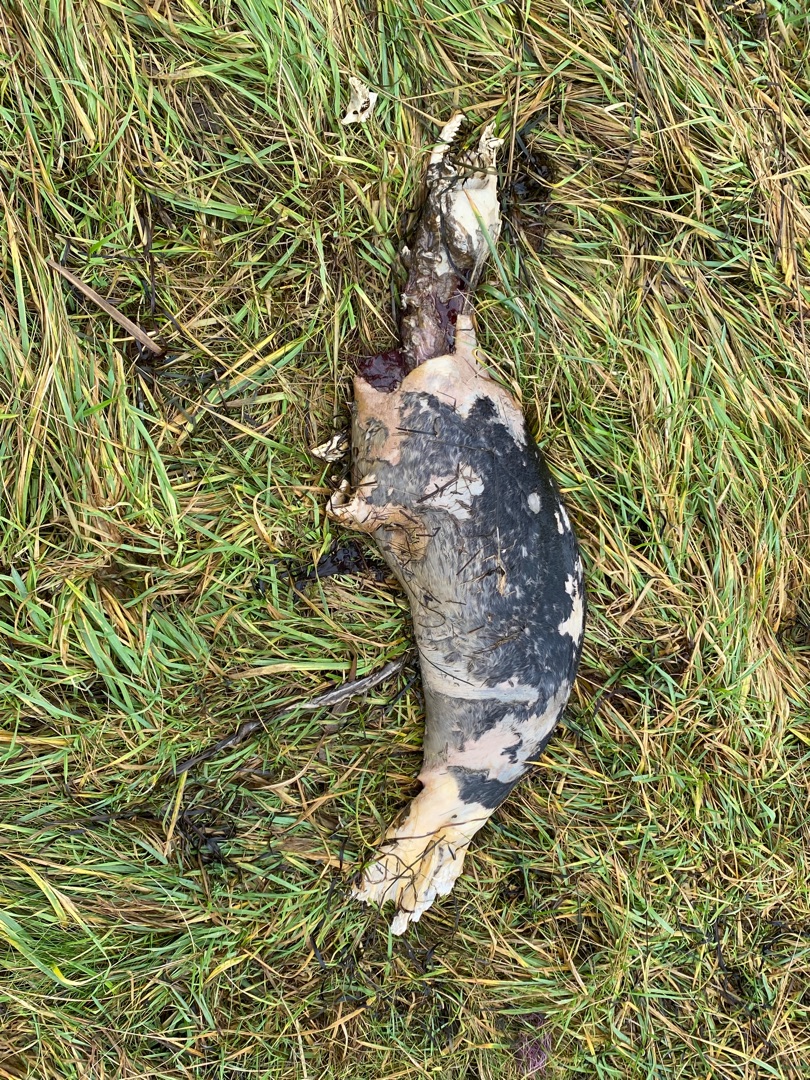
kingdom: Animalia
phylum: Chordata
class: Mammalia
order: Carnivora
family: Phocidae
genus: Phoca
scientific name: Phoca vitulina
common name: Spættet sæl
